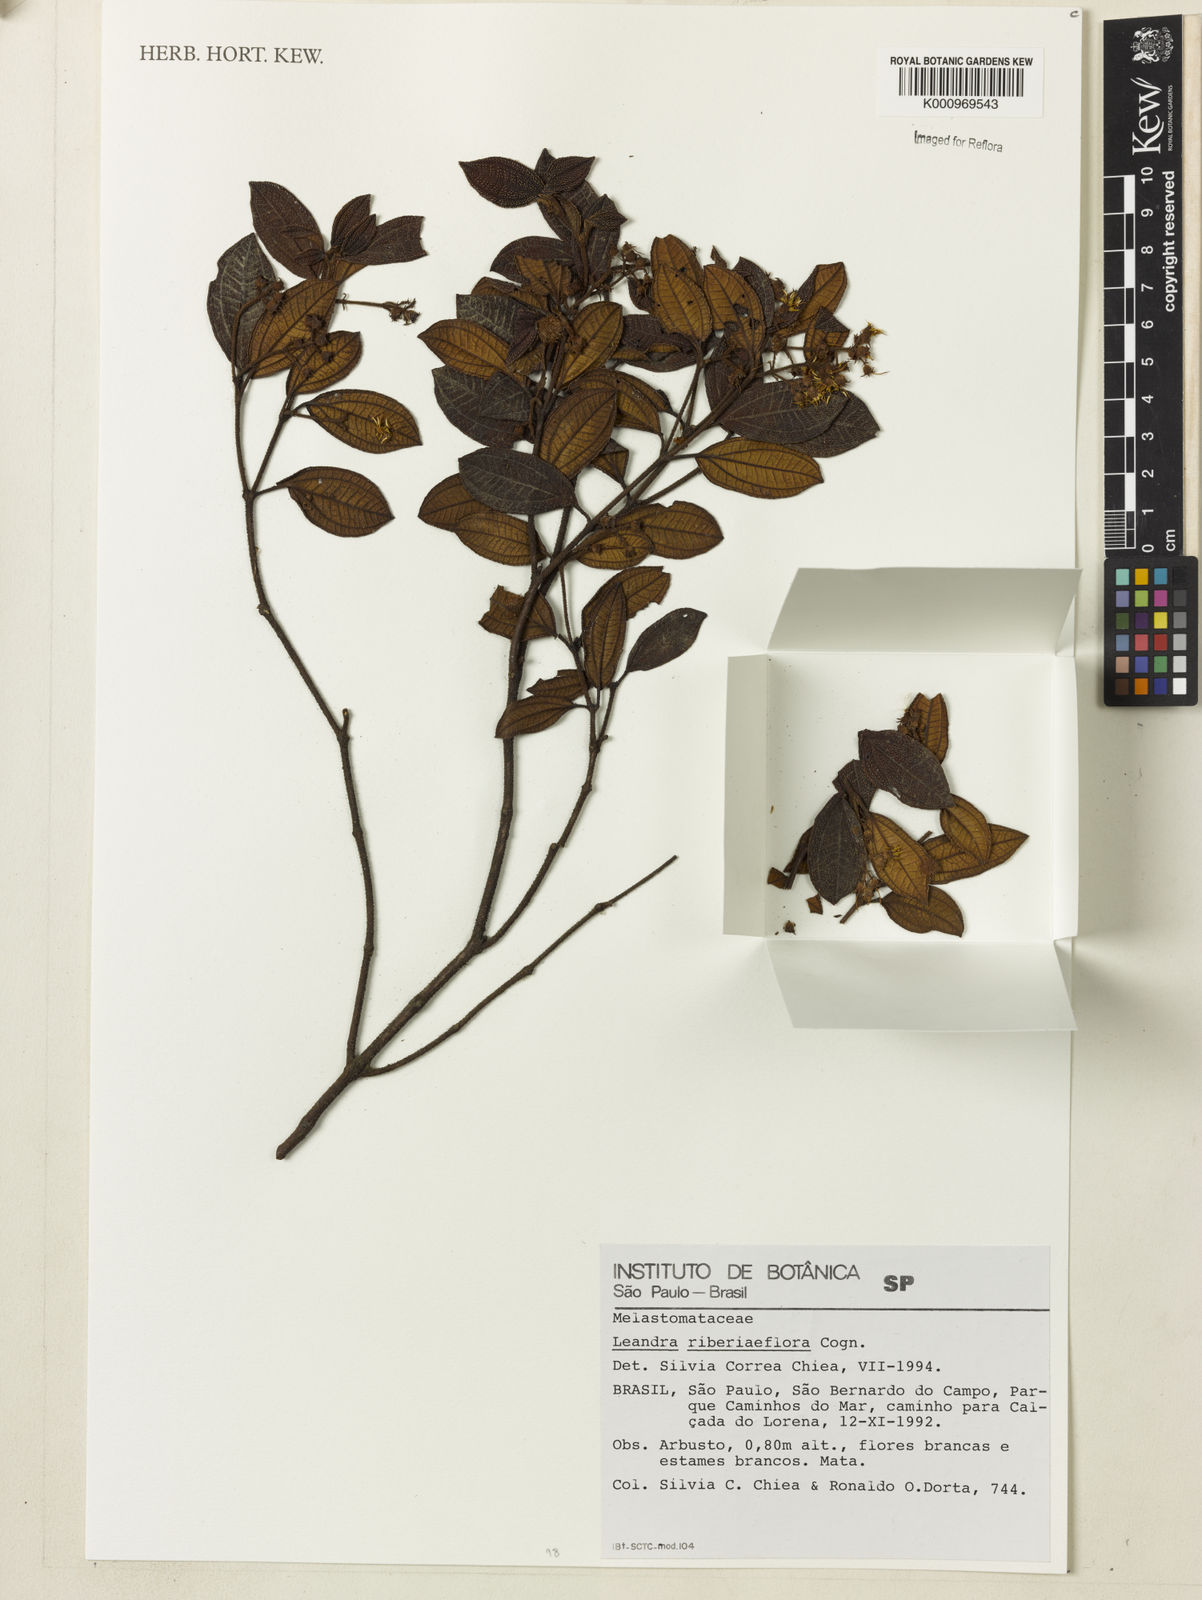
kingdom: Plantae
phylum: Tracheophyta
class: Magnoliopsida
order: Myrtales
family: Melastomataceae
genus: Miconia
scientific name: Miconia Leandra ribesiaeflora
